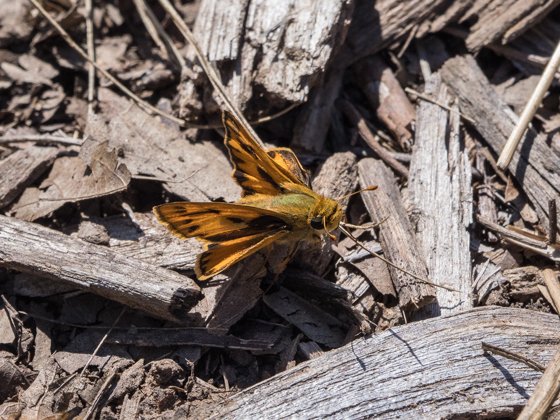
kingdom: Animalia
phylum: Arthropoda
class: Insecta
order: Lepidoptera
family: Hesperiidae
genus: Hylephila
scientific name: Hylephila phyleus
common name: Fiery Skipper
